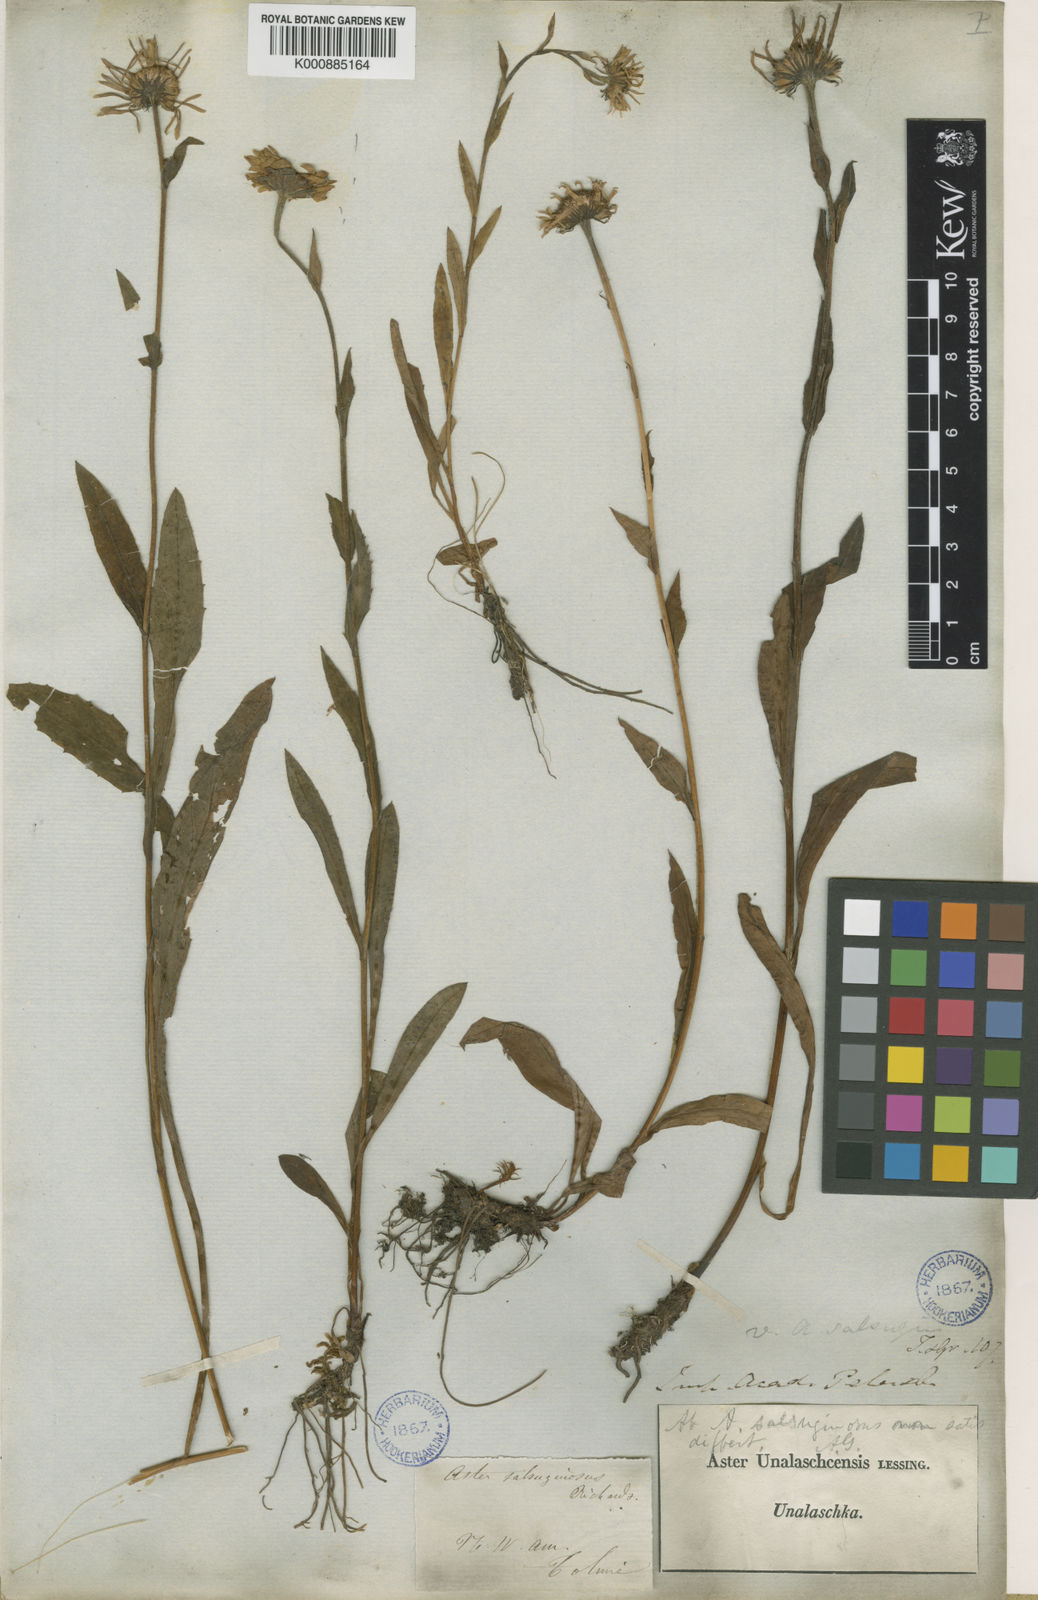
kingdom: Plantae
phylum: Tracheophyta
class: Magnoliopsida
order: Asterales
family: Asteraceae
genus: Erigeron
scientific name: Erigeron
